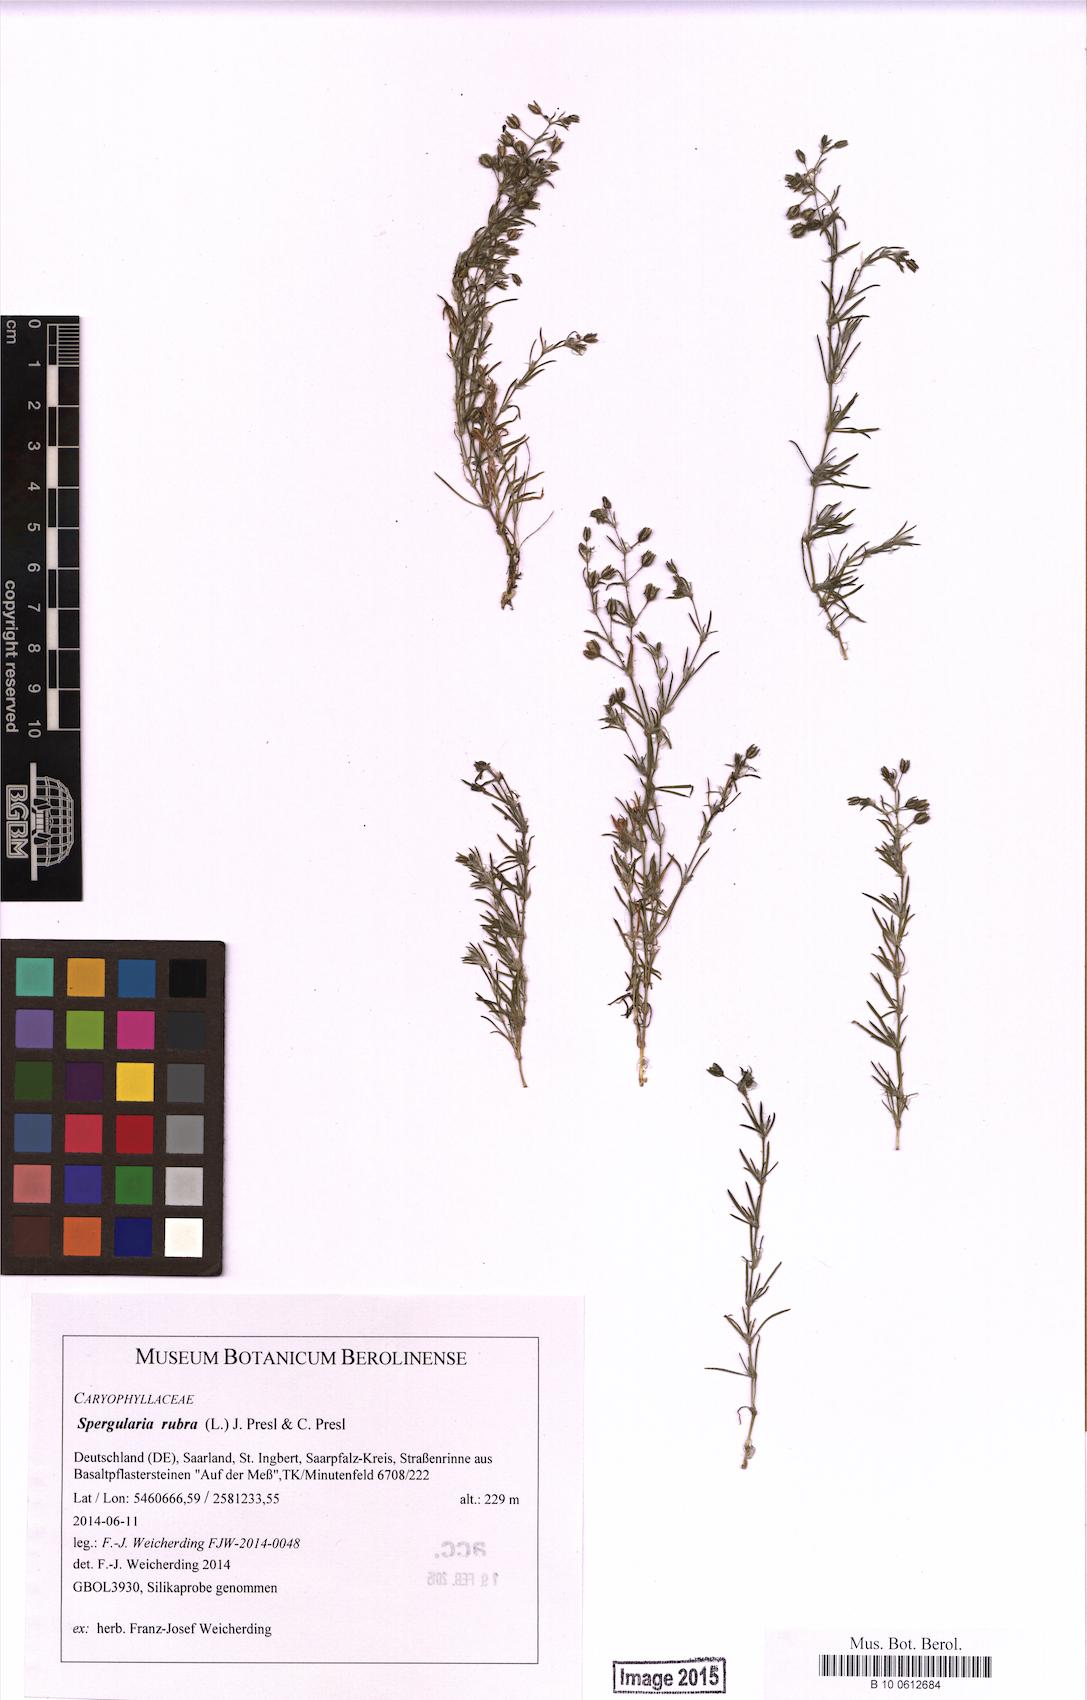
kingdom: Plantae
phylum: Tracheophyta
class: Magnoliopsida
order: Caryophyllales
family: Caryophyllaceae
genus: Spergularia
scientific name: Spergularia rubra
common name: Red sand-spurrey
